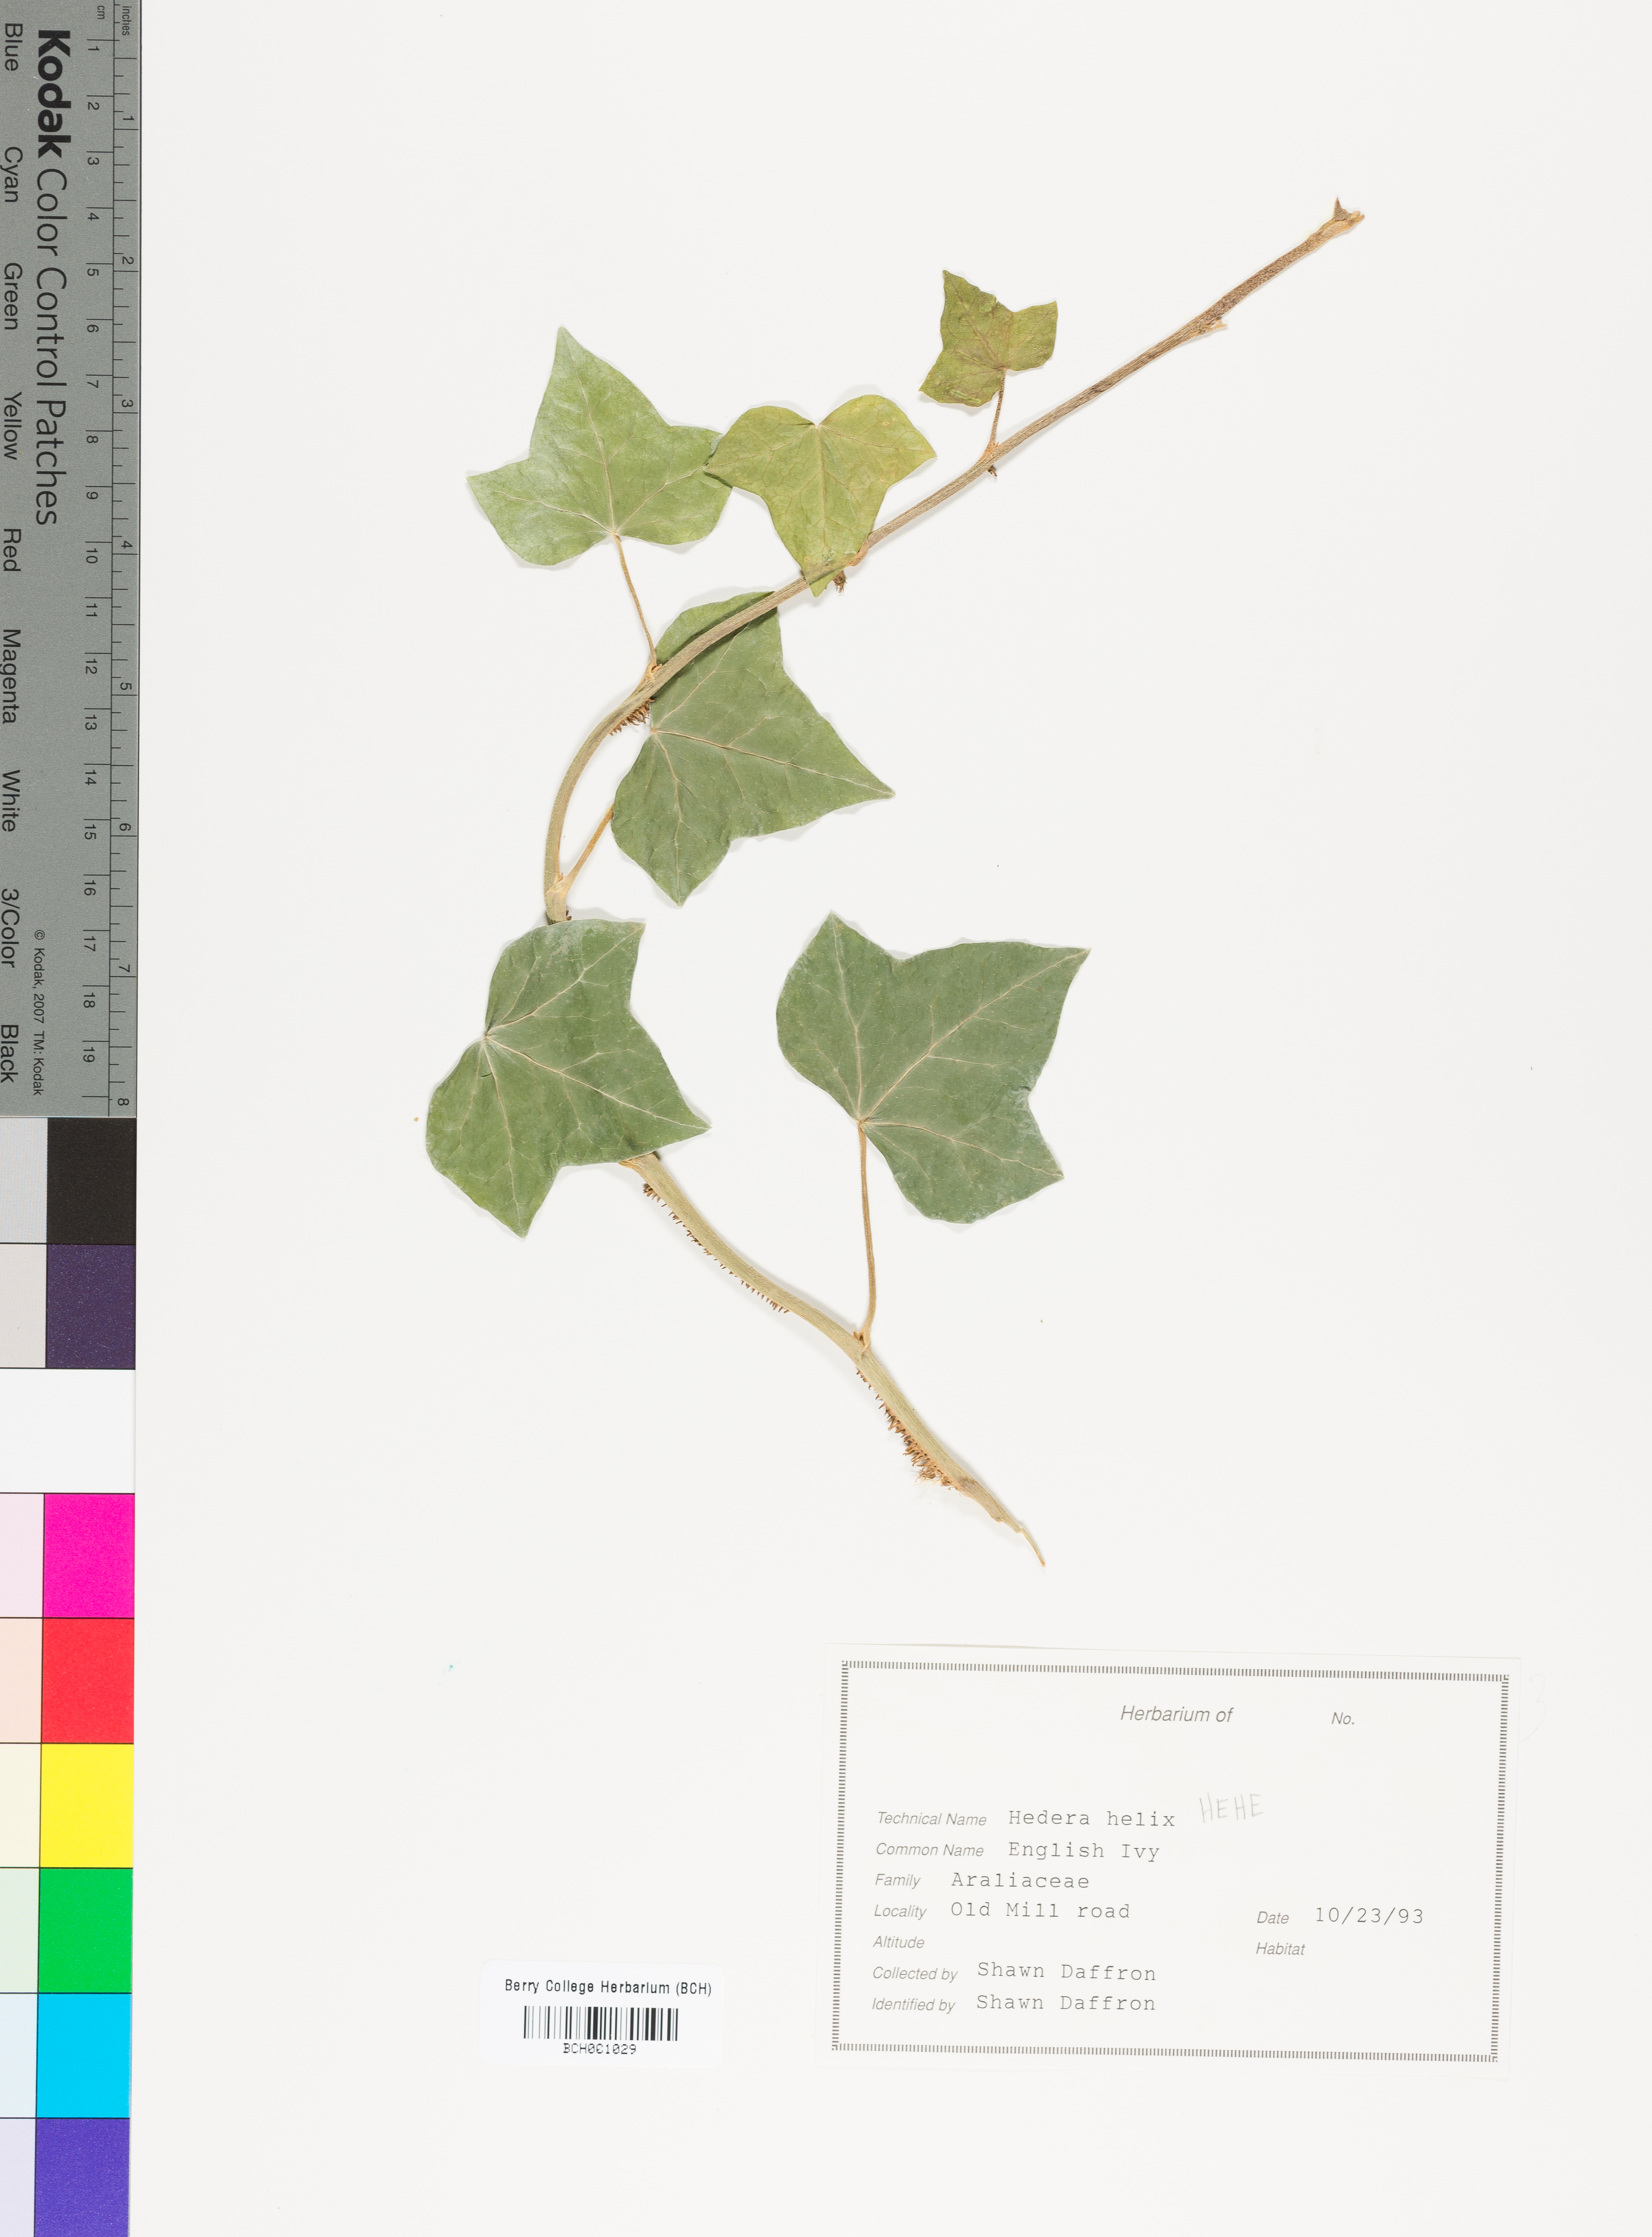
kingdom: Plantae
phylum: Tracheophyta
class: Magnoliopsida
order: Apiales
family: Araliaceae
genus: Hedera
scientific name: Hedera helix
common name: Ivy
